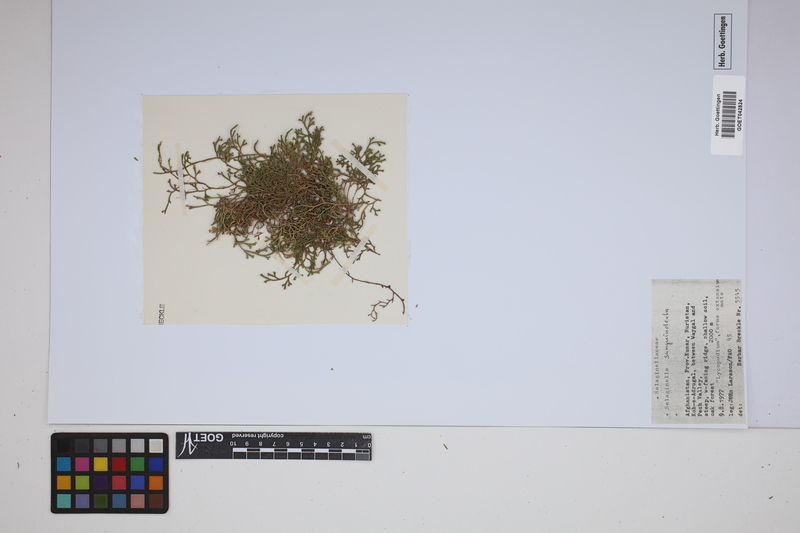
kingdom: Plantae
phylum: Tracheophyta
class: Lycopodiopsida
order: Selaginellales
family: Selaginellaceae
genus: Selaginella
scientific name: Selaginella sanguinolenta
